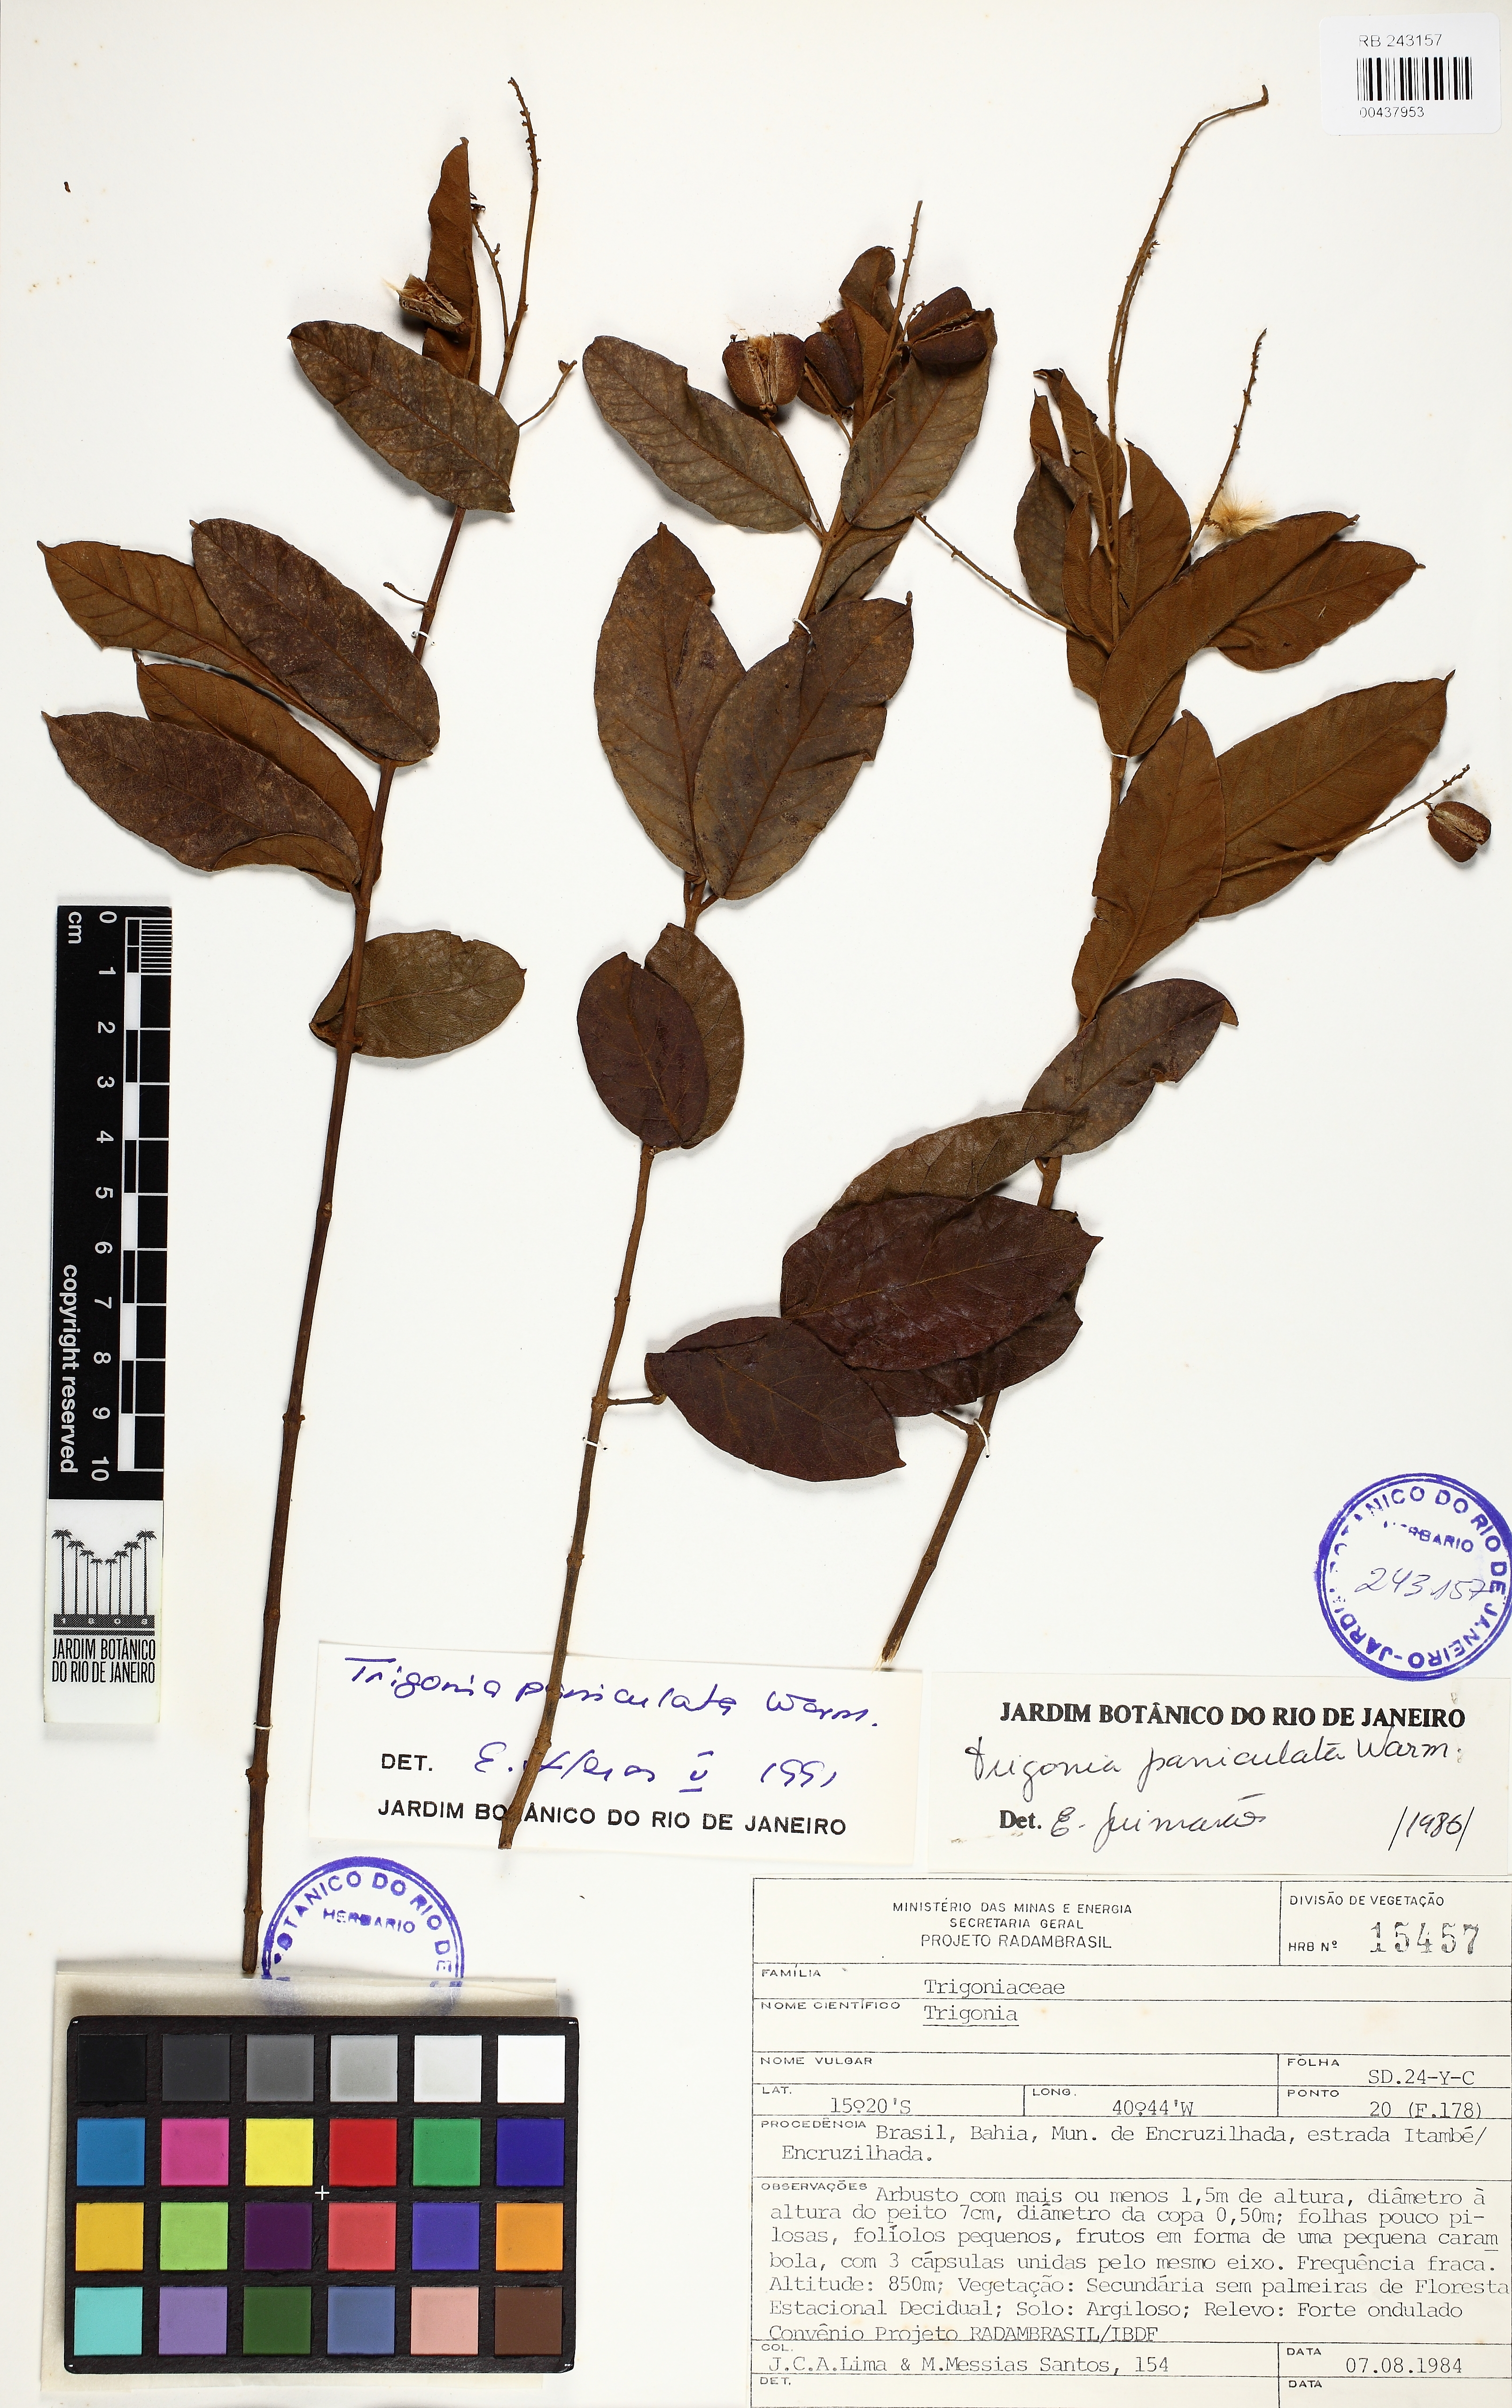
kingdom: Plantae
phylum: Tracheophyta
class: Magnoliopsida
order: Malpighiales
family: Trigoniaceae
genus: Trigonia
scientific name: Trigonia paniculata
